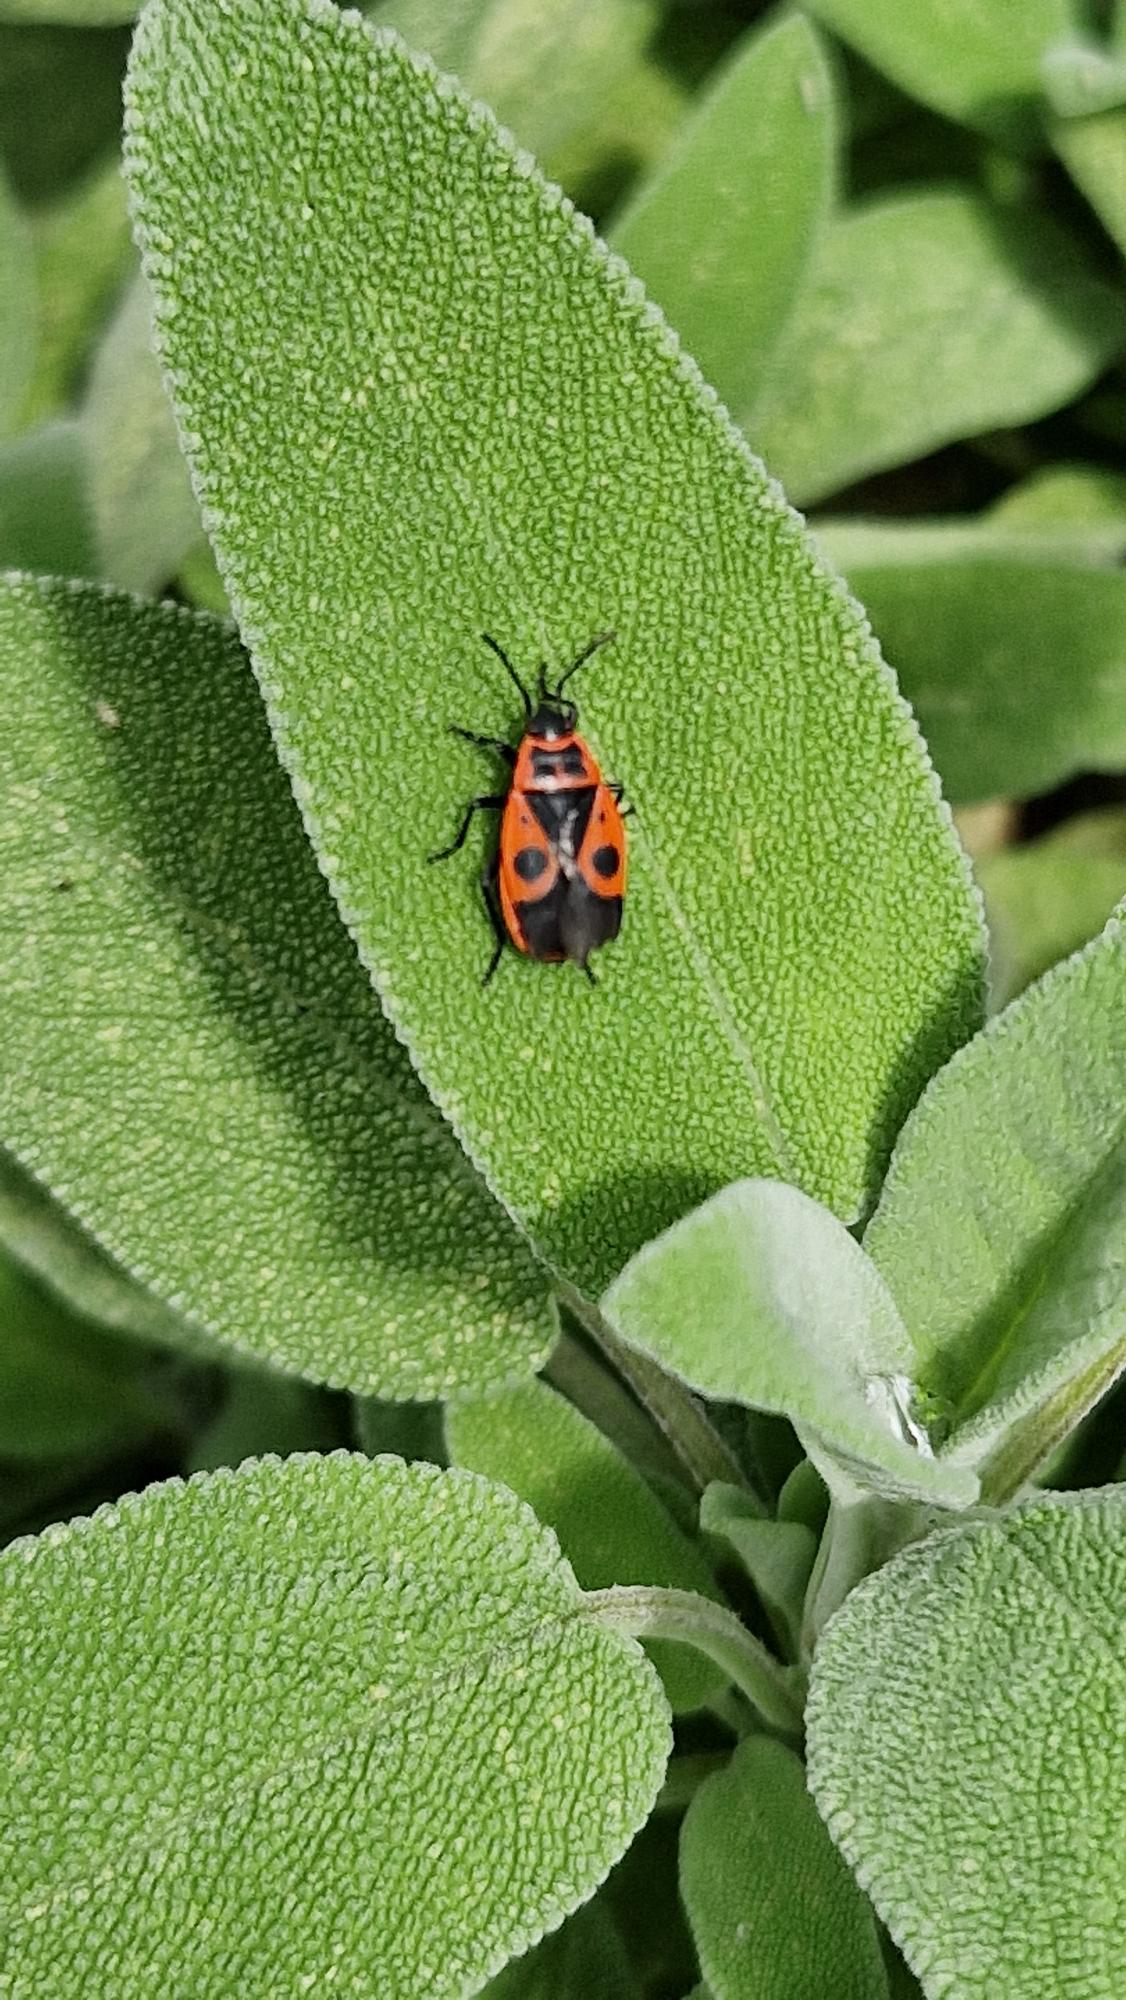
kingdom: Animalia
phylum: Arthropoda
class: Insecta
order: Hemiptera
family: Pyrrhocoridae
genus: Pyrrhocoris
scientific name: Pyrrhocoris apterus
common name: Ildtæge
